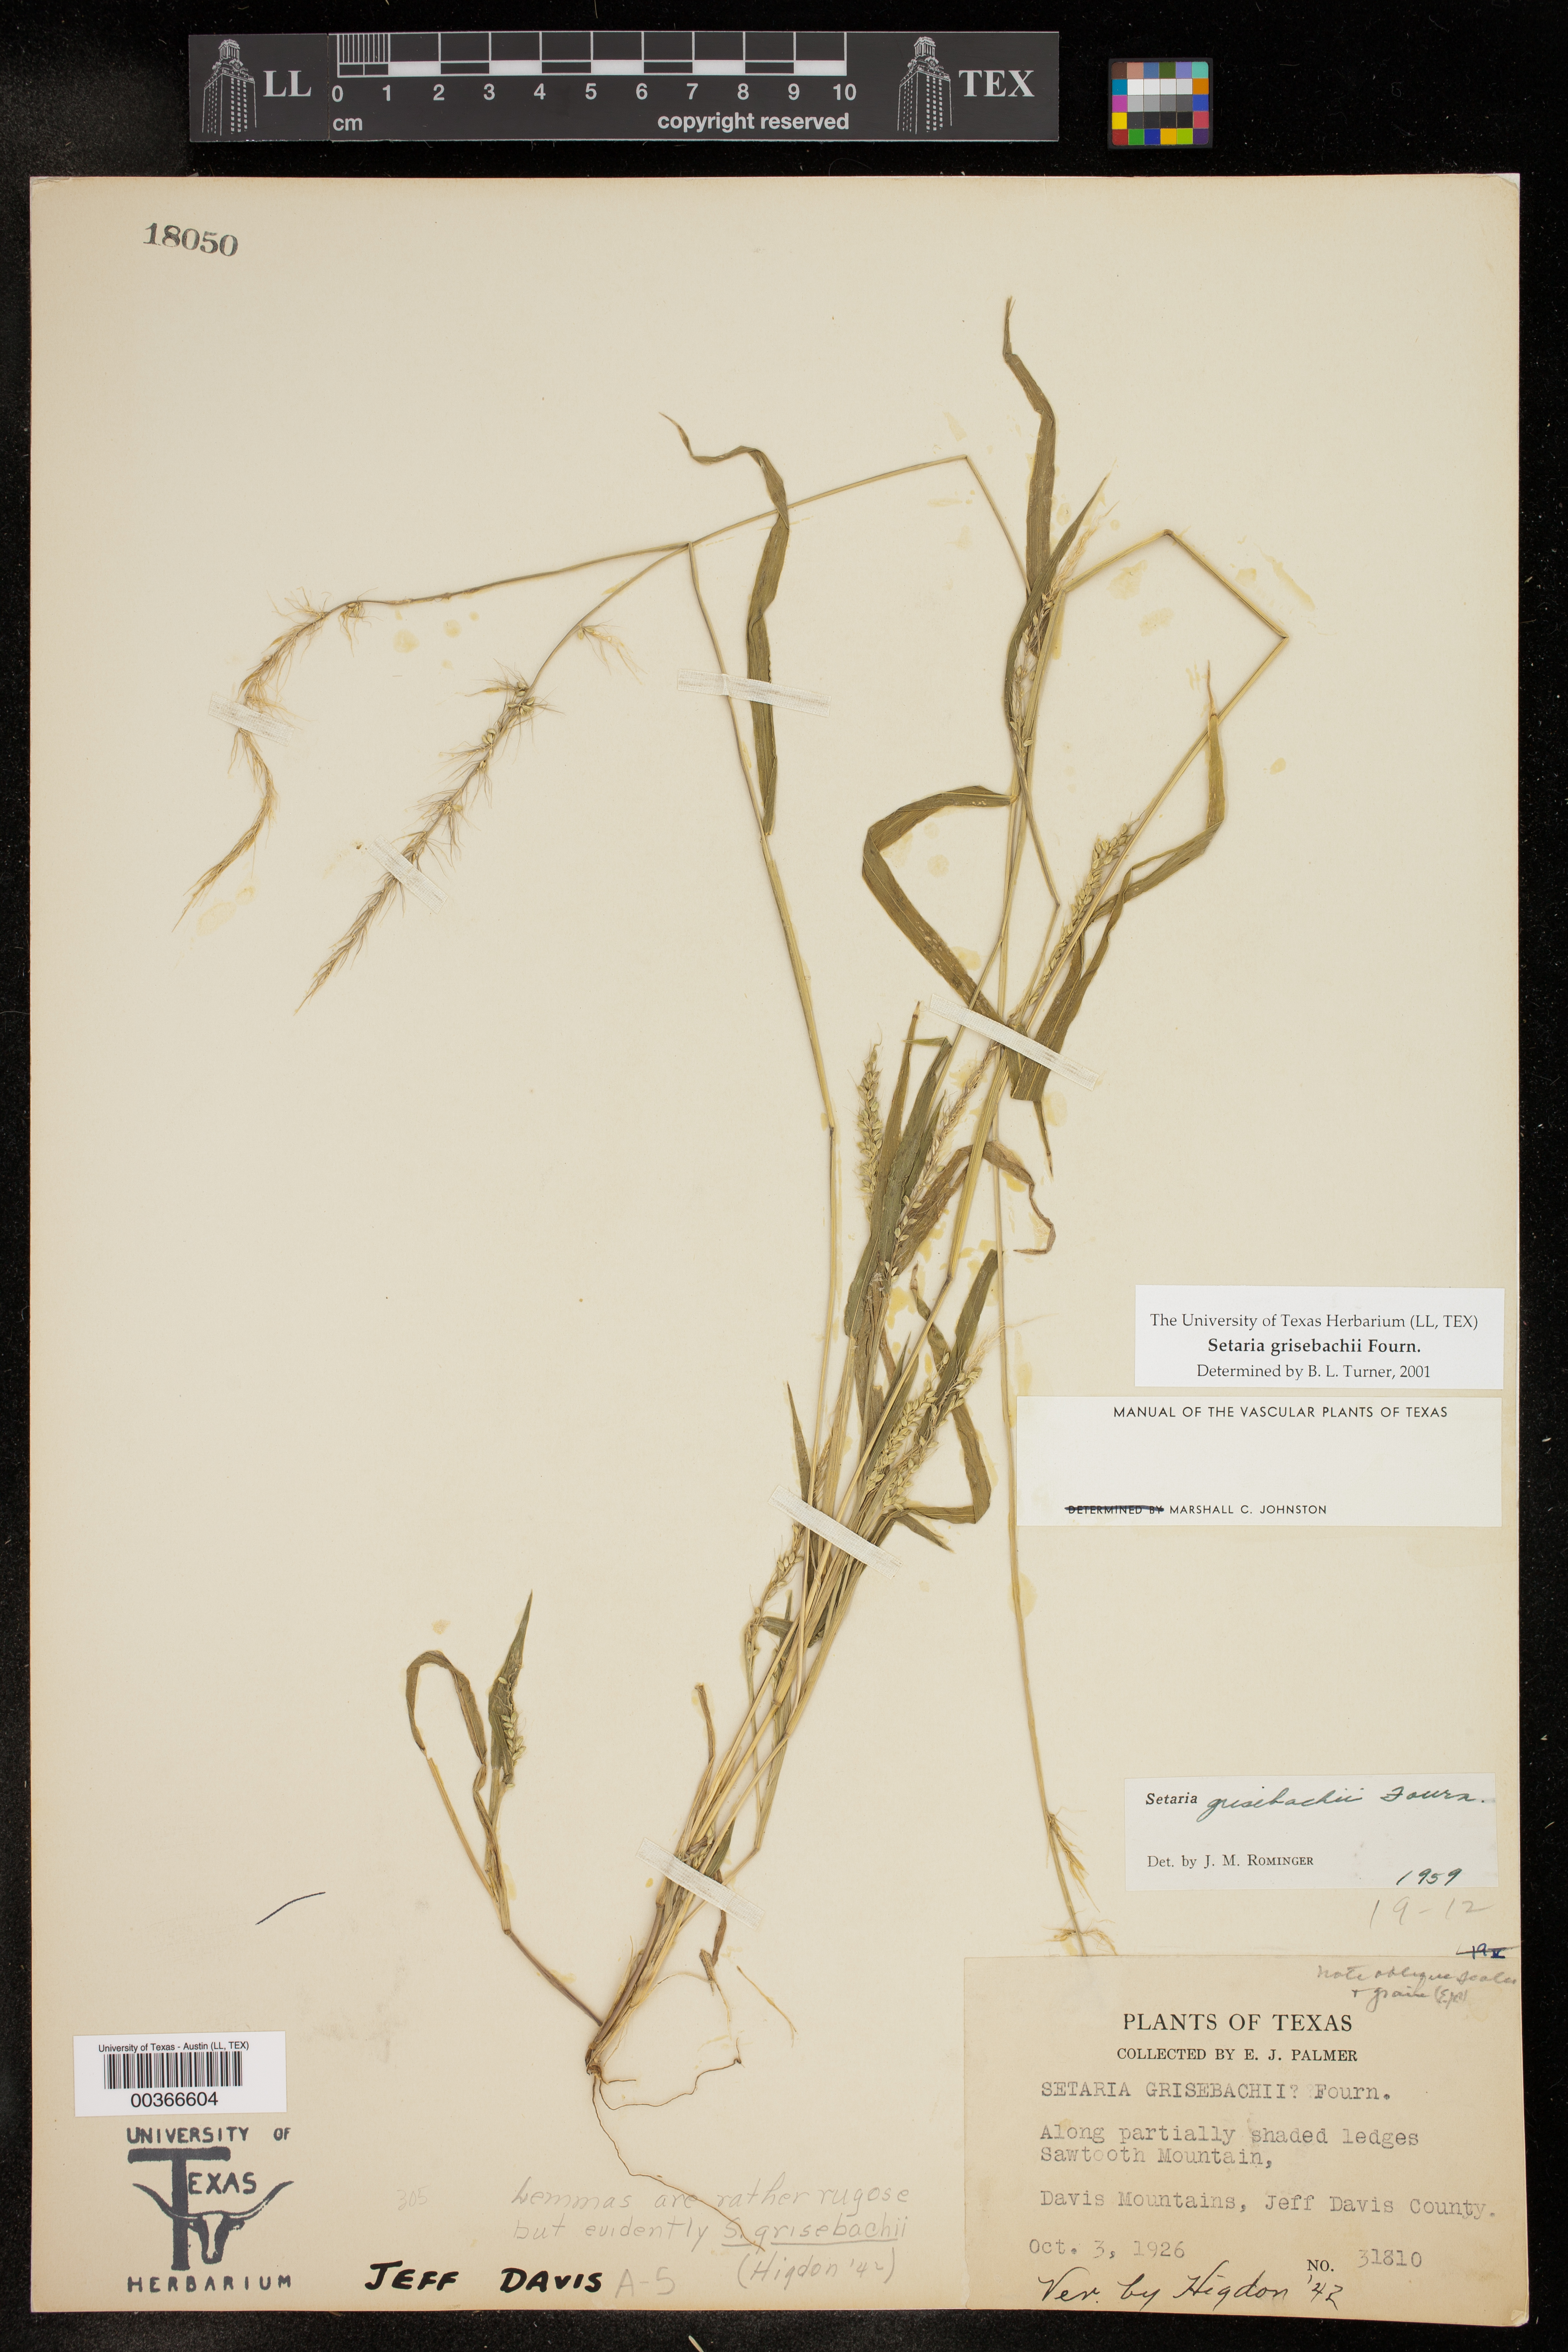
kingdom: Plantae
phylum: Tracheophyta
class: Liliopsida
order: Poales
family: Poaceae
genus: Setaria
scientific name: Setaria grisebachii
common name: Grisebach's bristle grass
